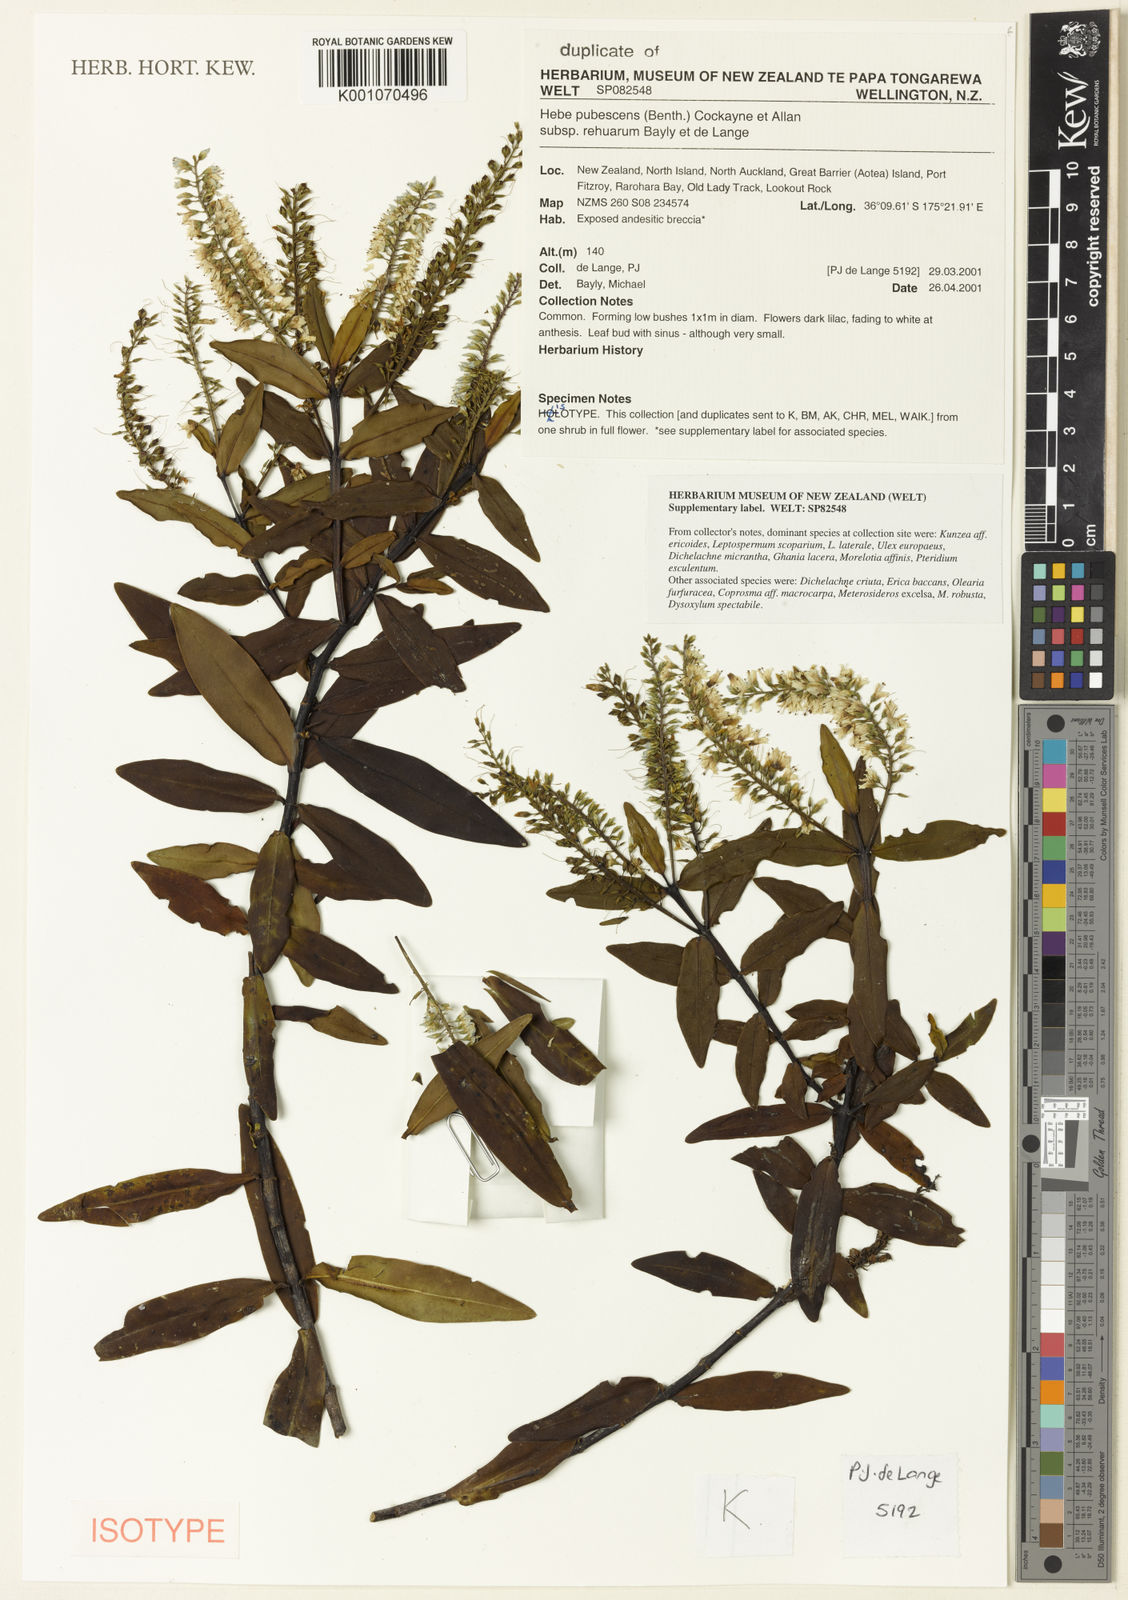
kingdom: Plantae
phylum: Tracheophyta
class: Magnoliopsida
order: Lamiales
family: Plantaginaceae
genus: Veronica
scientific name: Veronica pubescens
